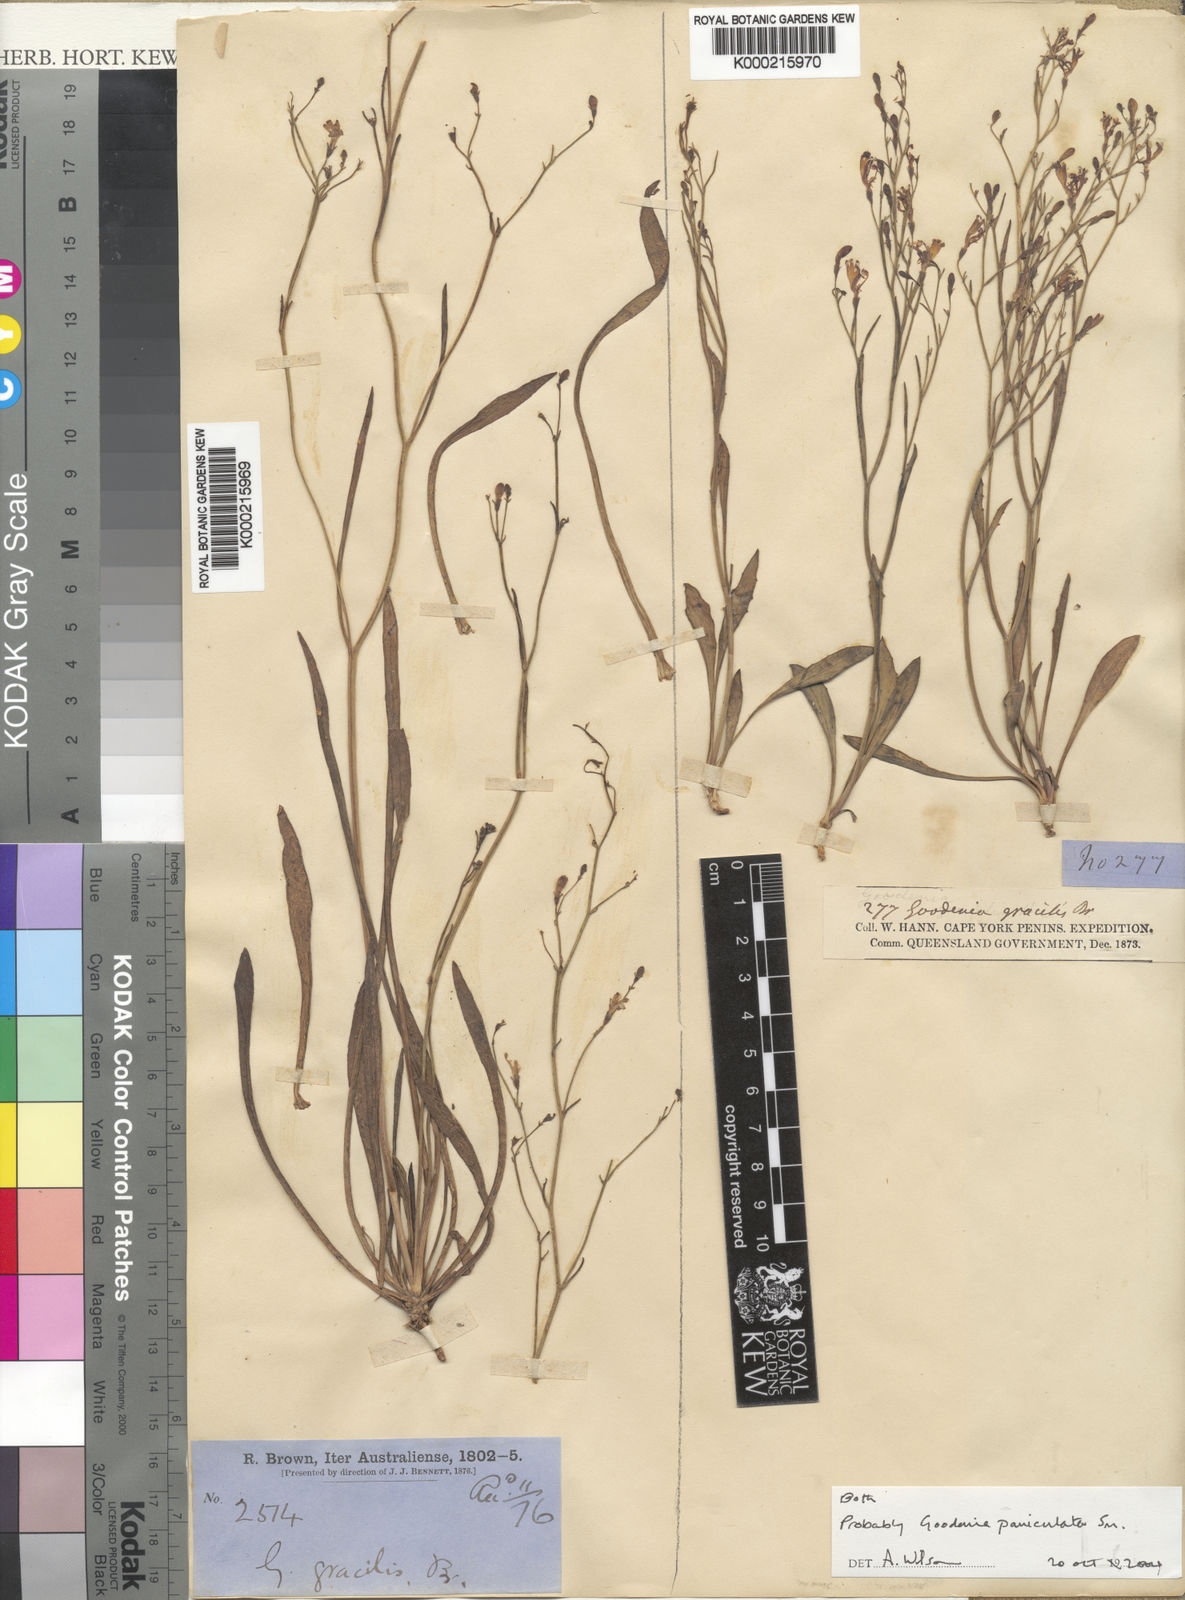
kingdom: Plantae
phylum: Tracheophyta
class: Magnoliopsida
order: Asterales
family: Goodeniaceae
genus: Goodenia
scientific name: Goodenia paniculata
